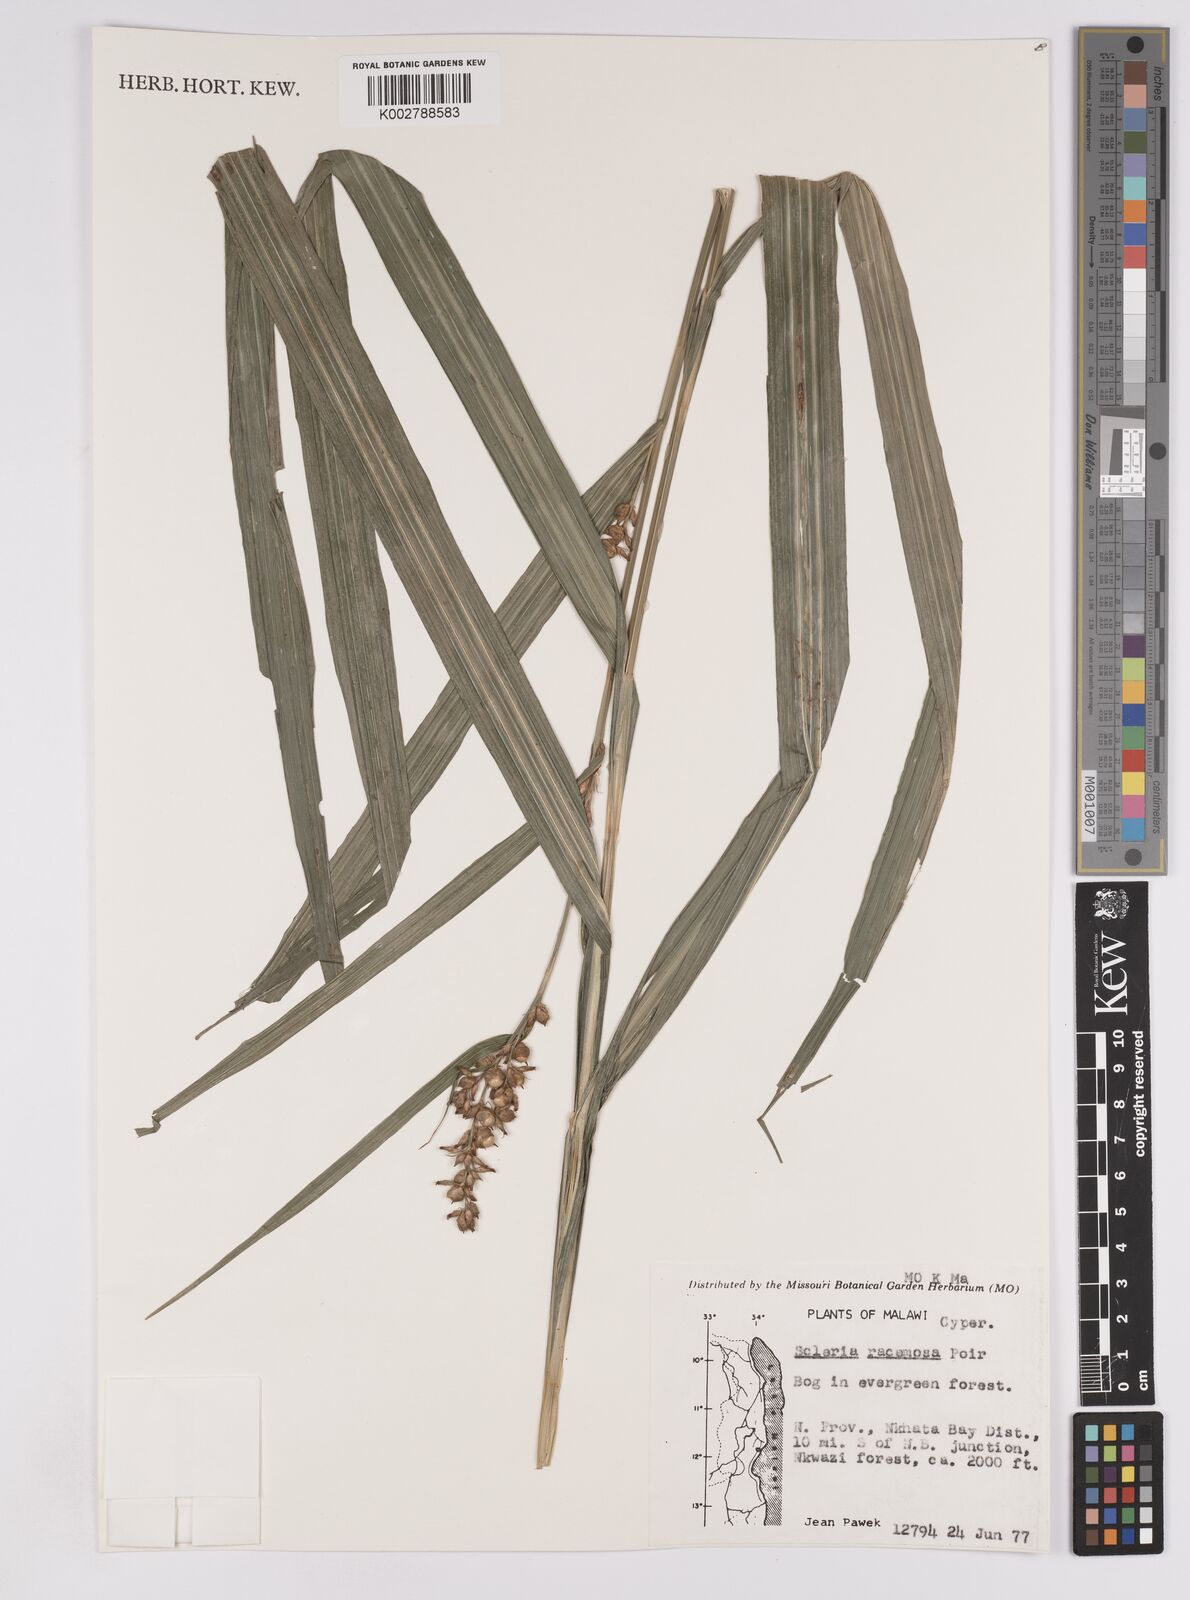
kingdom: Plantae
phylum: Tracheophyta
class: Liliopsida
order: Poales
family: Cyperaceae
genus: Scleria
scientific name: Scleria racemosa
